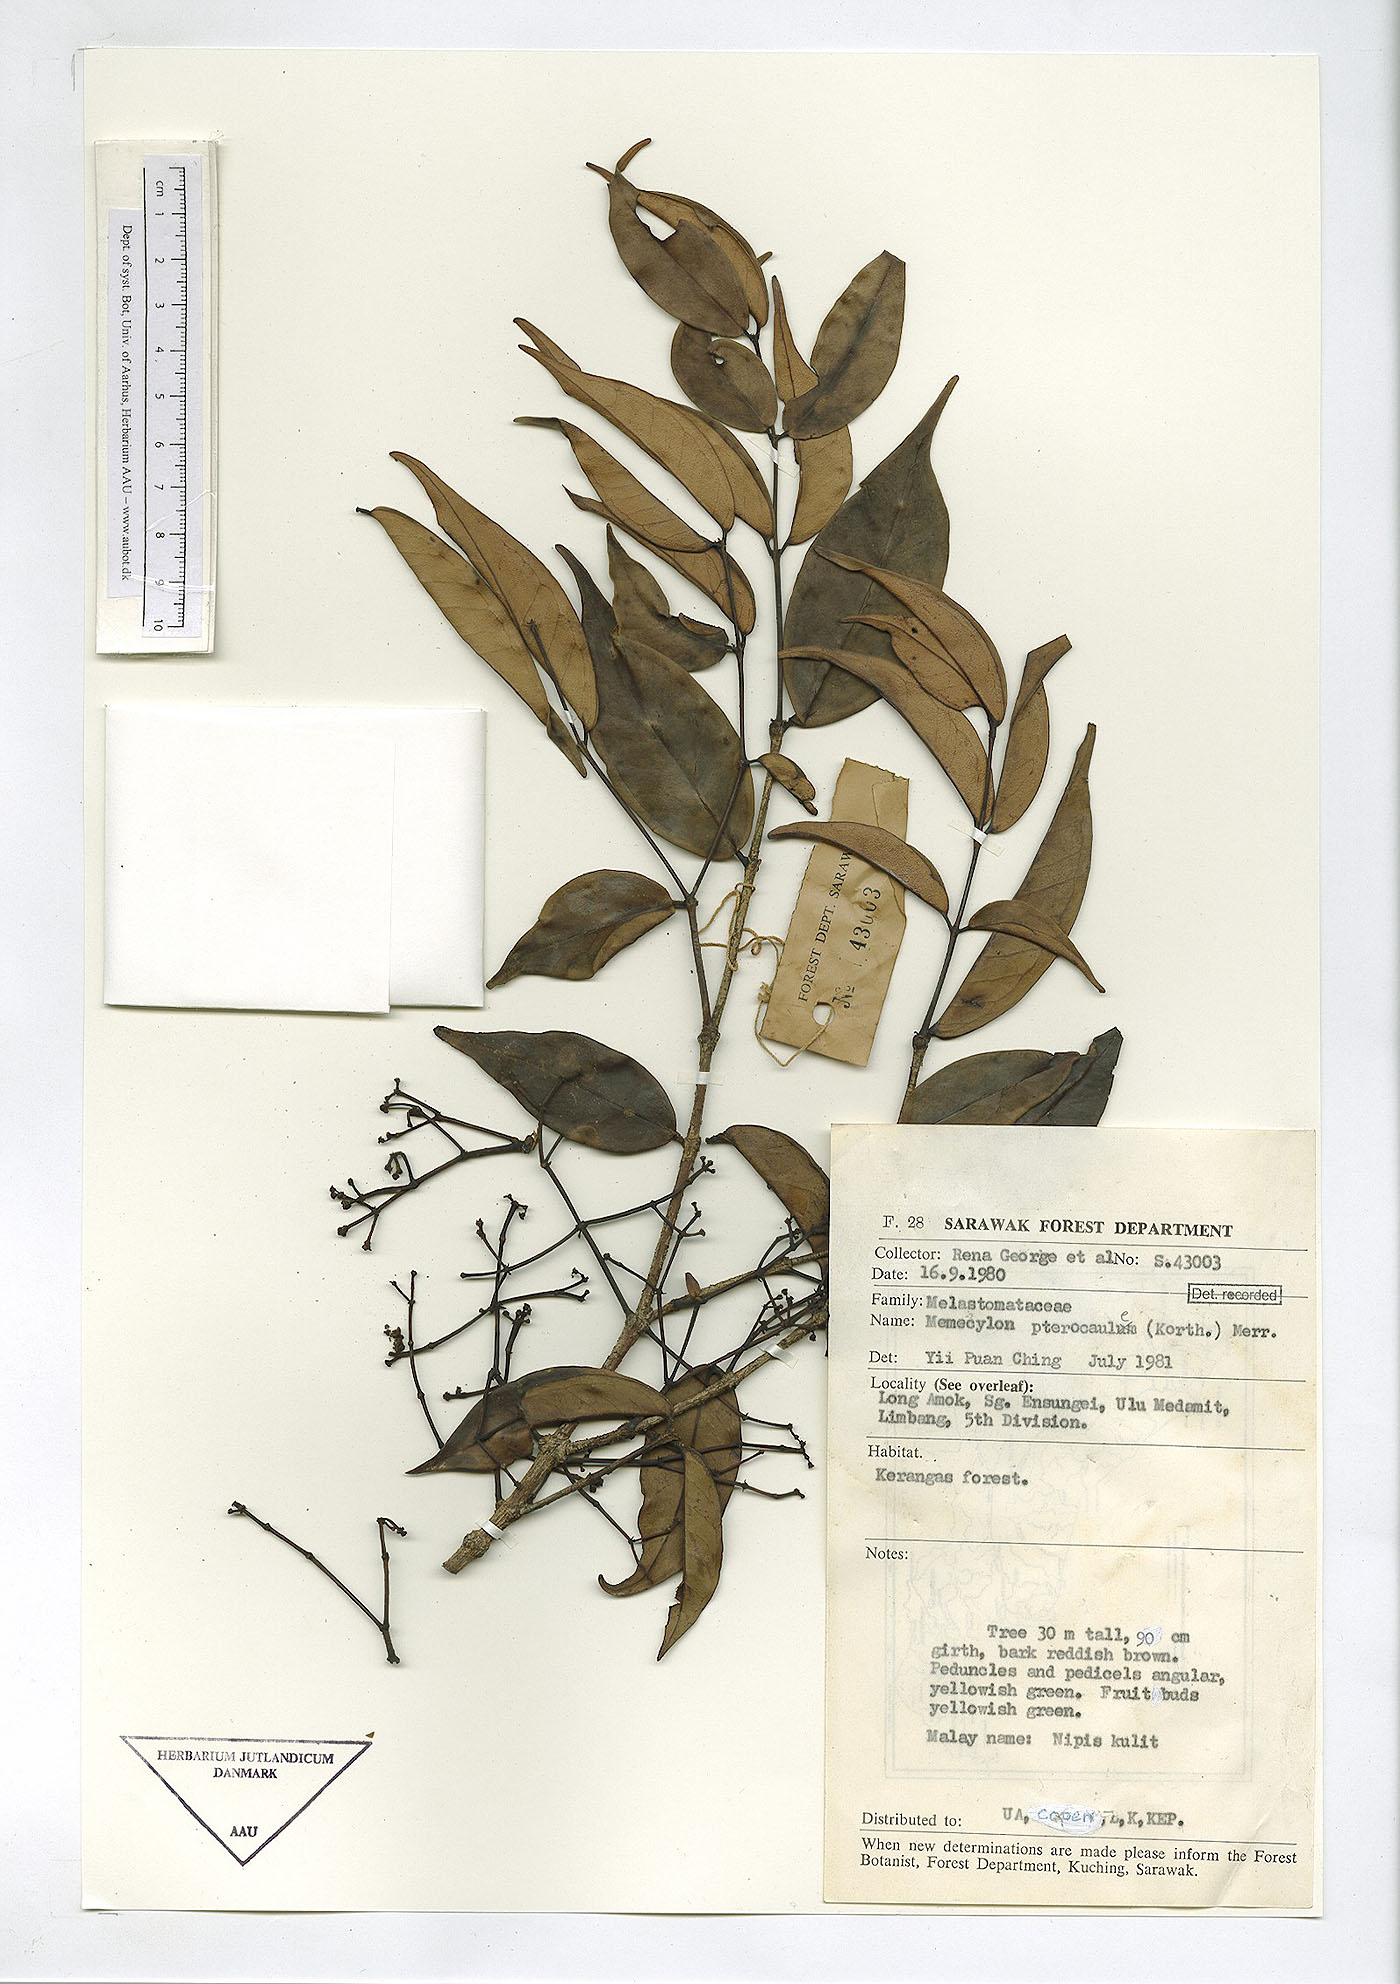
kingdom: Plantae
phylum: Tracheophyta
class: Magnoliopsida
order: Myrtales
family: Melastomataceae
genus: Memecylon
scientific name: Memecylon paniculatum
